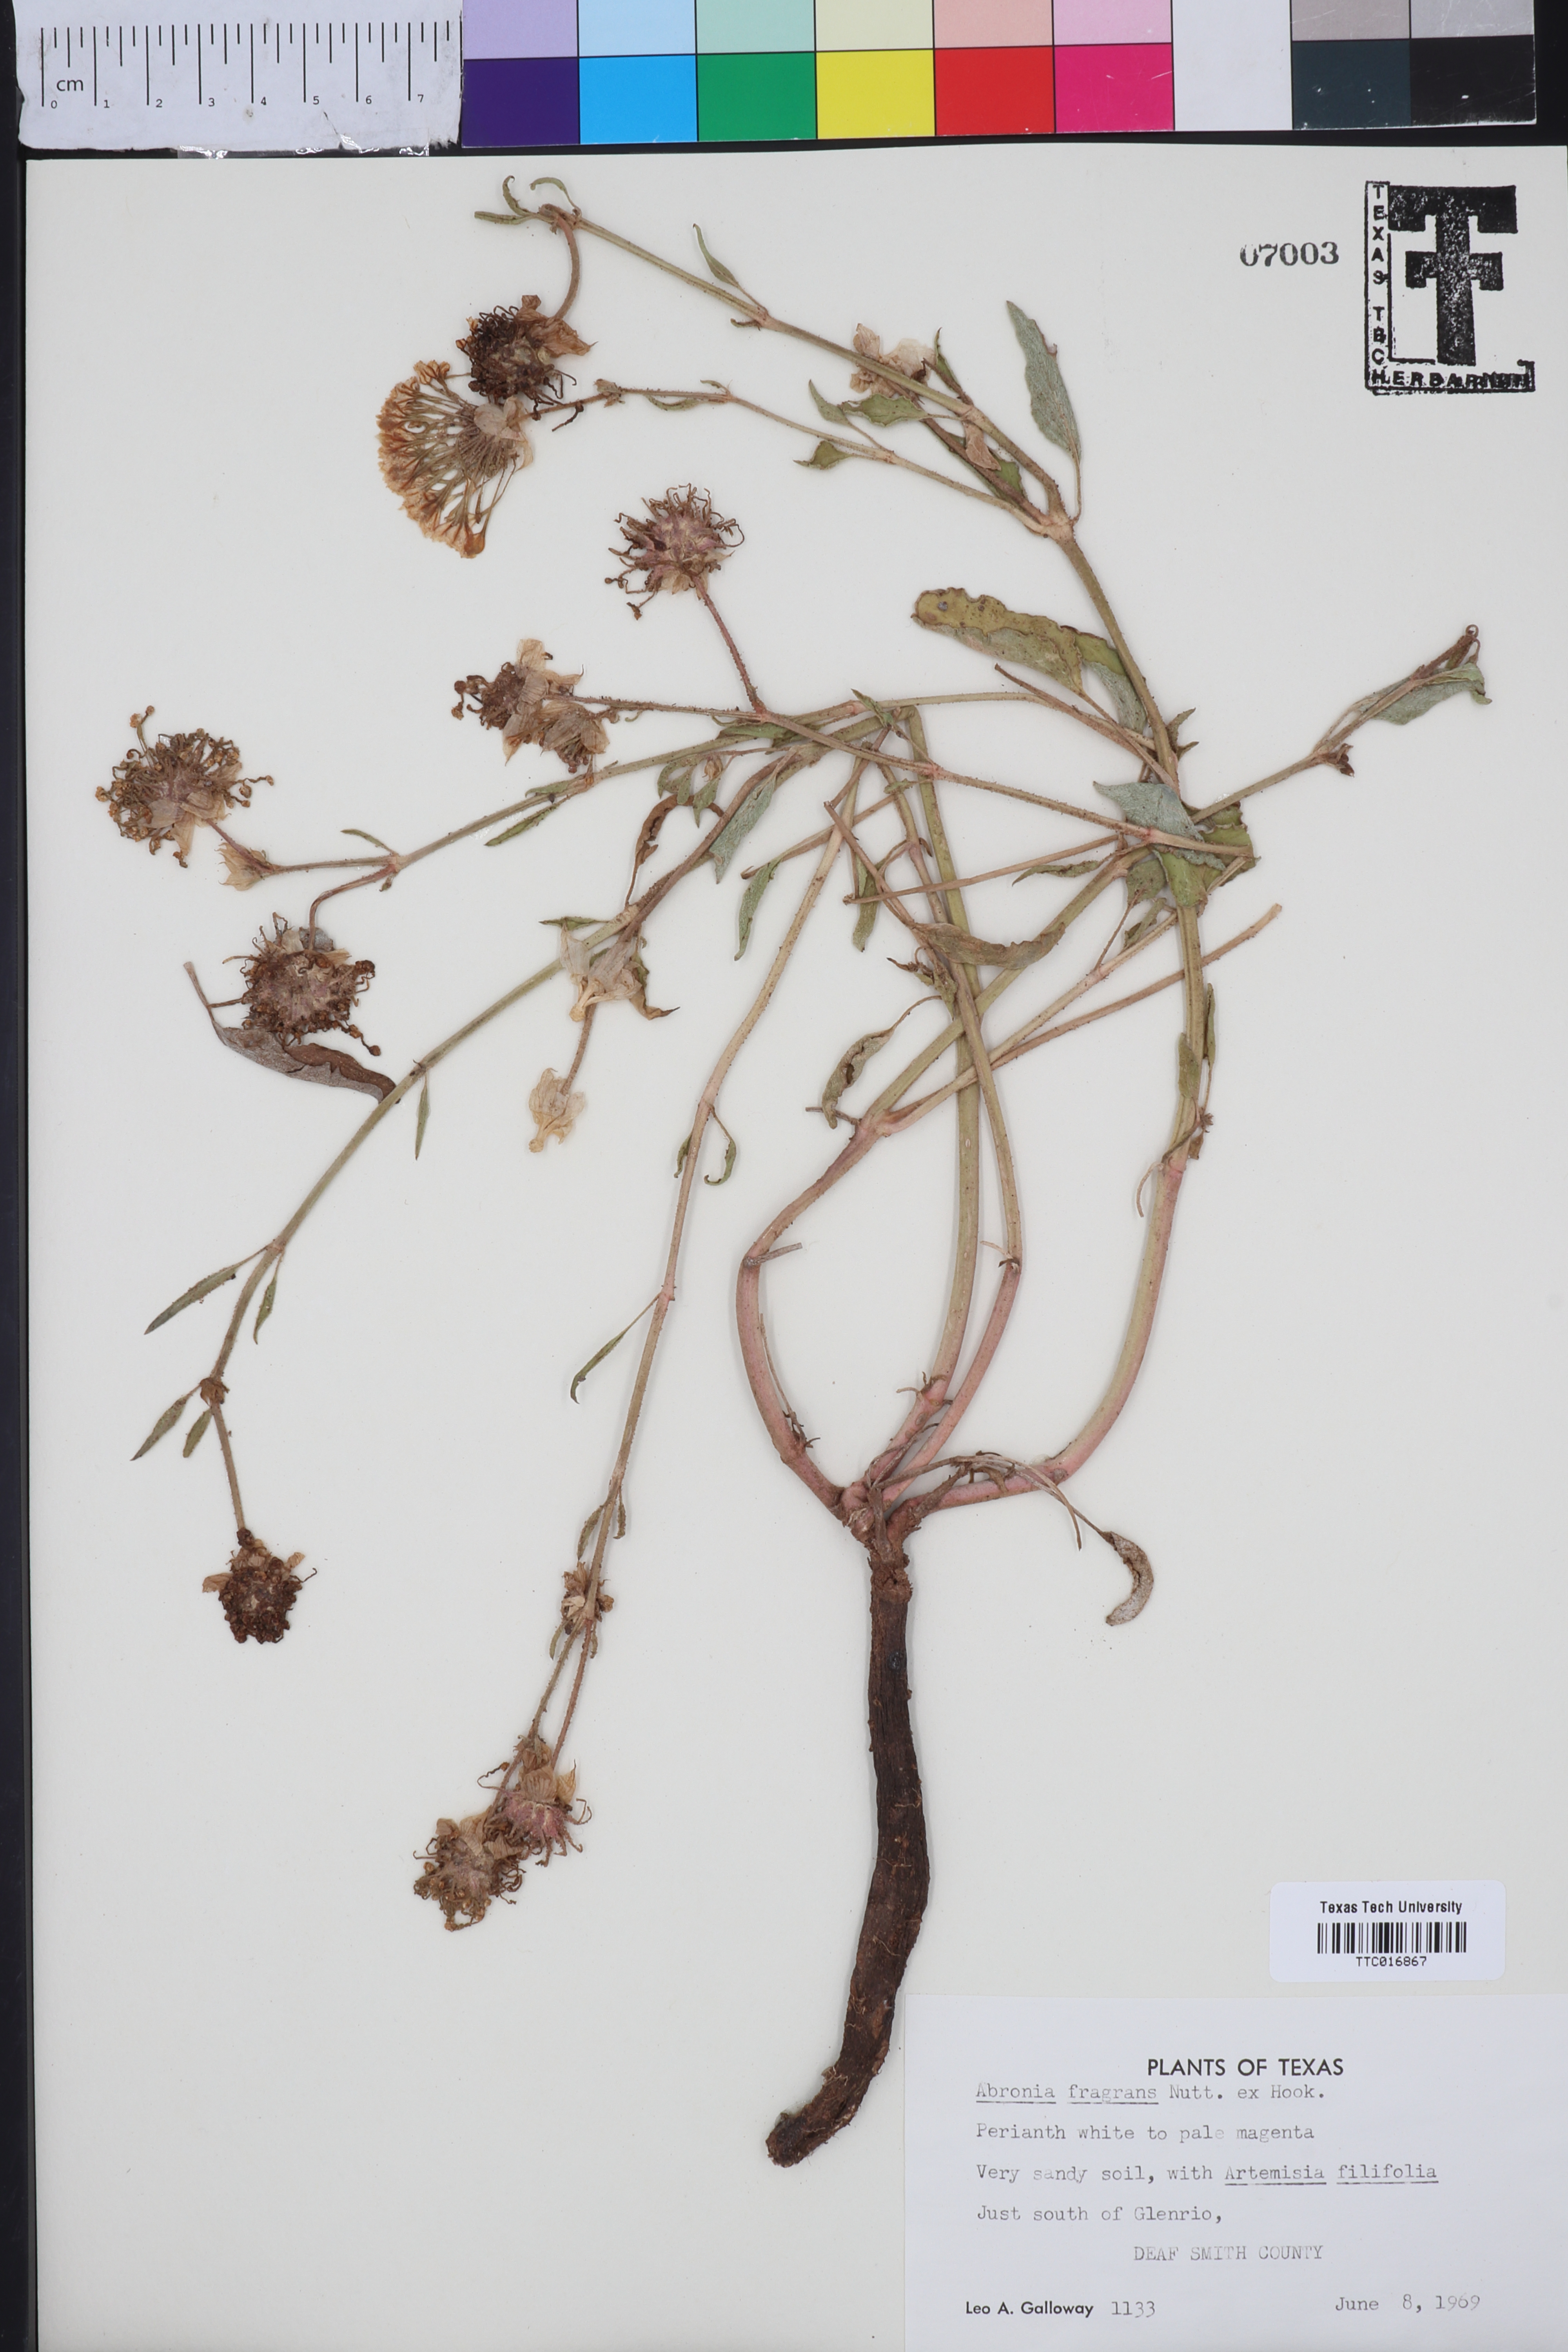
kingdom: Plantae
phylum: Tracheophyta
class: Magnoliopsida
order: Caryophyllales
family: Nyctaginaceae
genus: Abronia
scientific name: Abronia fragrans
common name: Fragrant sand-verbena
